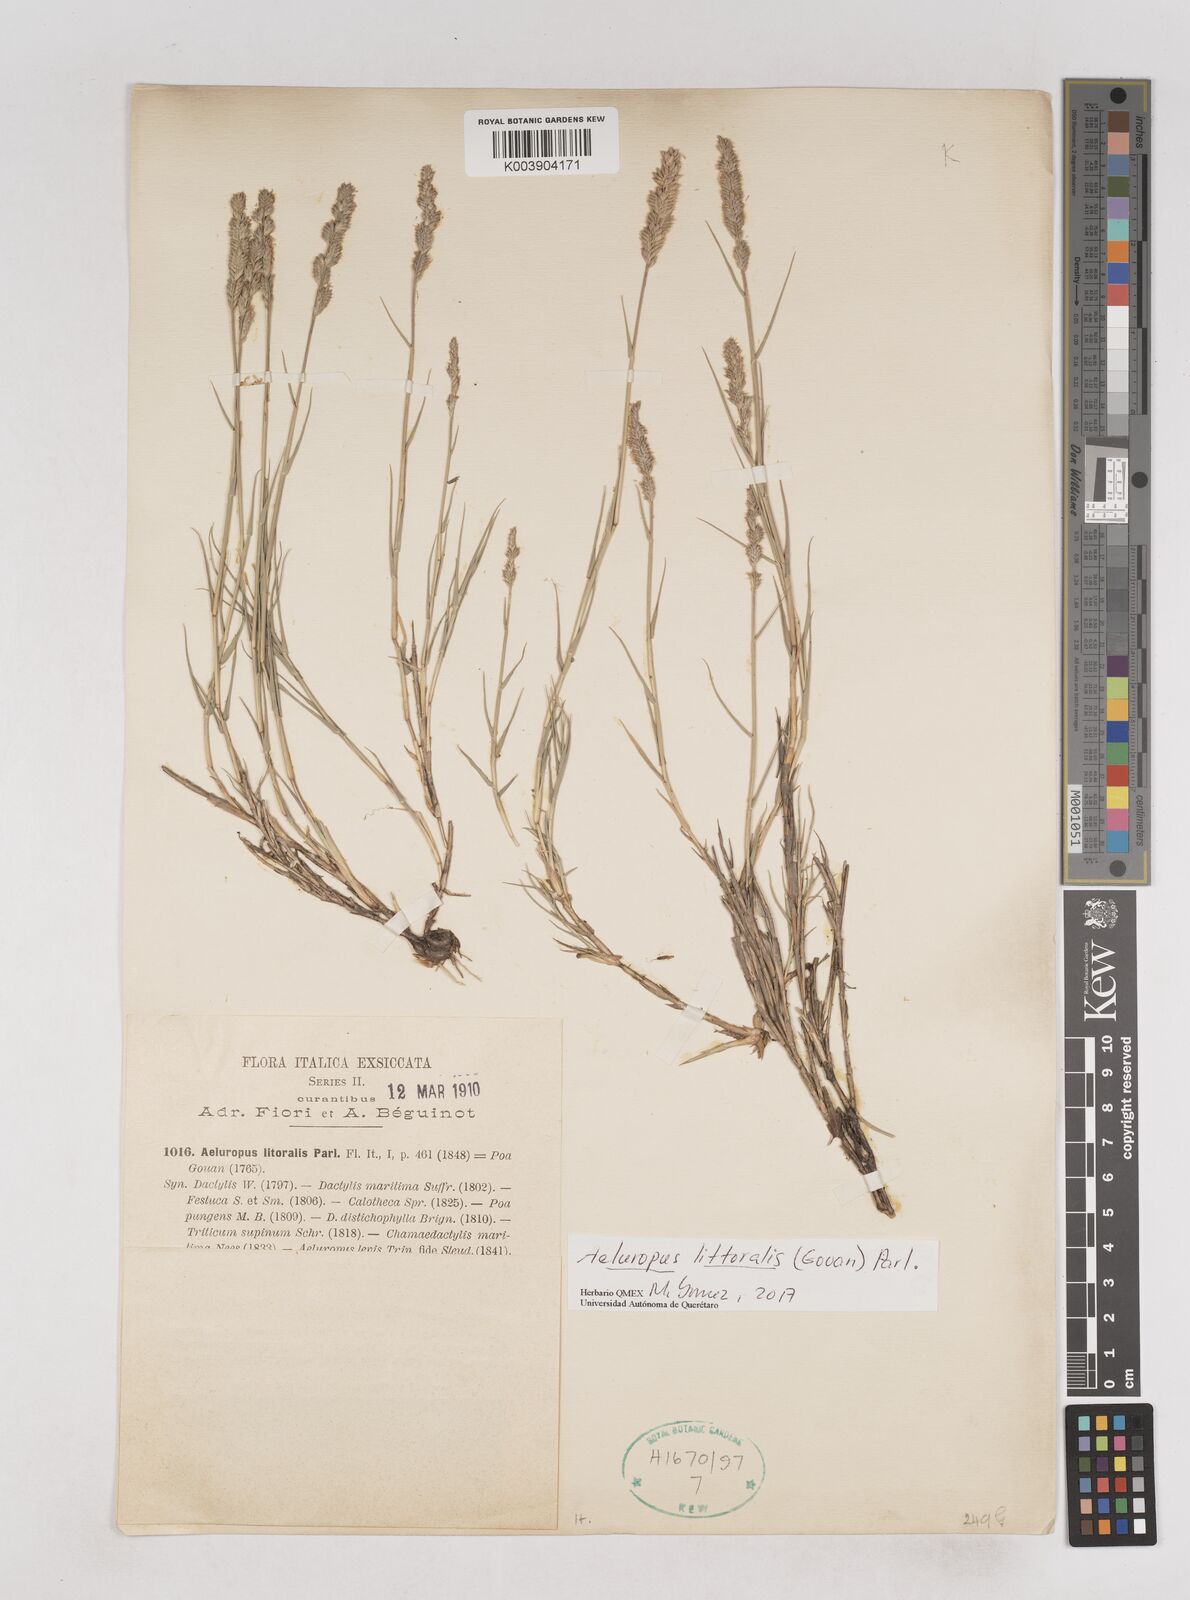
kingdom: Plantae
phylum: Tracheophyta
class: Liliopsida
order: Poales
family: Poaceae
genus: Aeluropus
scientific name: Aeluropus littoralis
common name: Indian walnut
